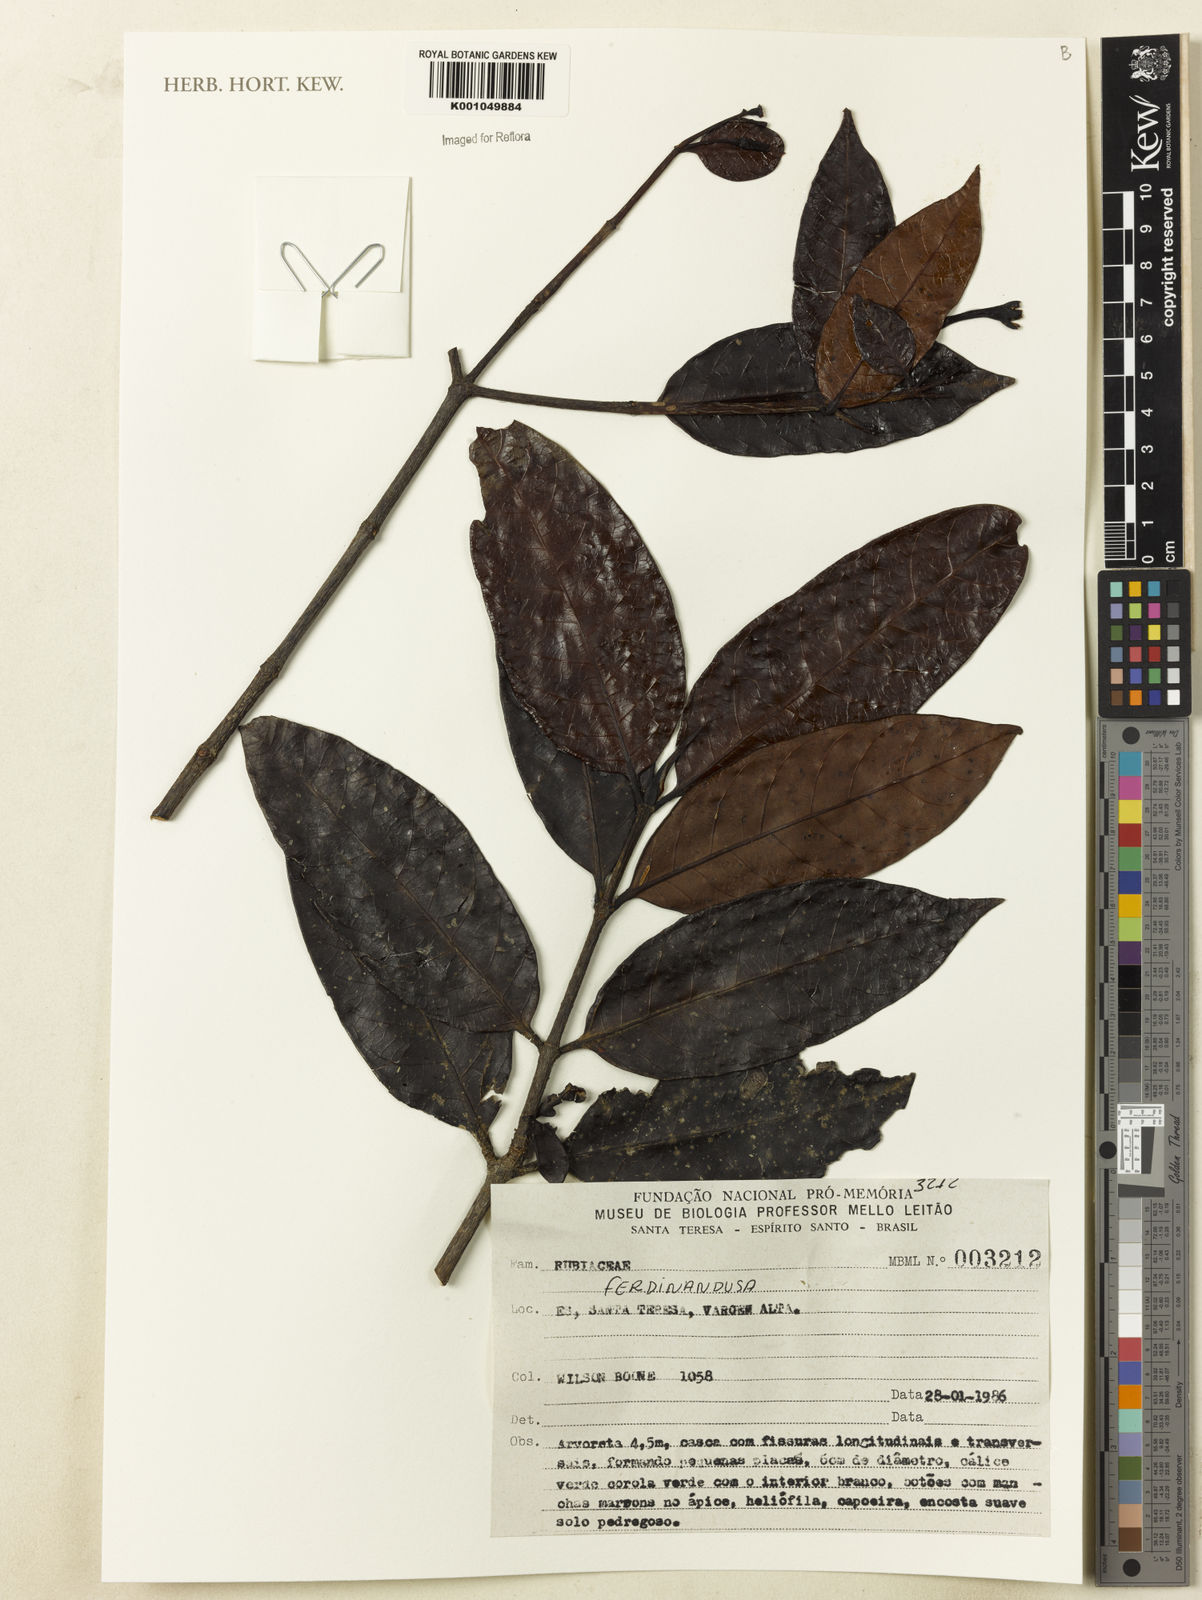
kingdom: Plantae
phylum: Tracheophyta
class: Magnoliopsida
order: Gentianales
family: Rubiaceae
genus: Ferdinandusa
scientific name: Ferdinandusa
